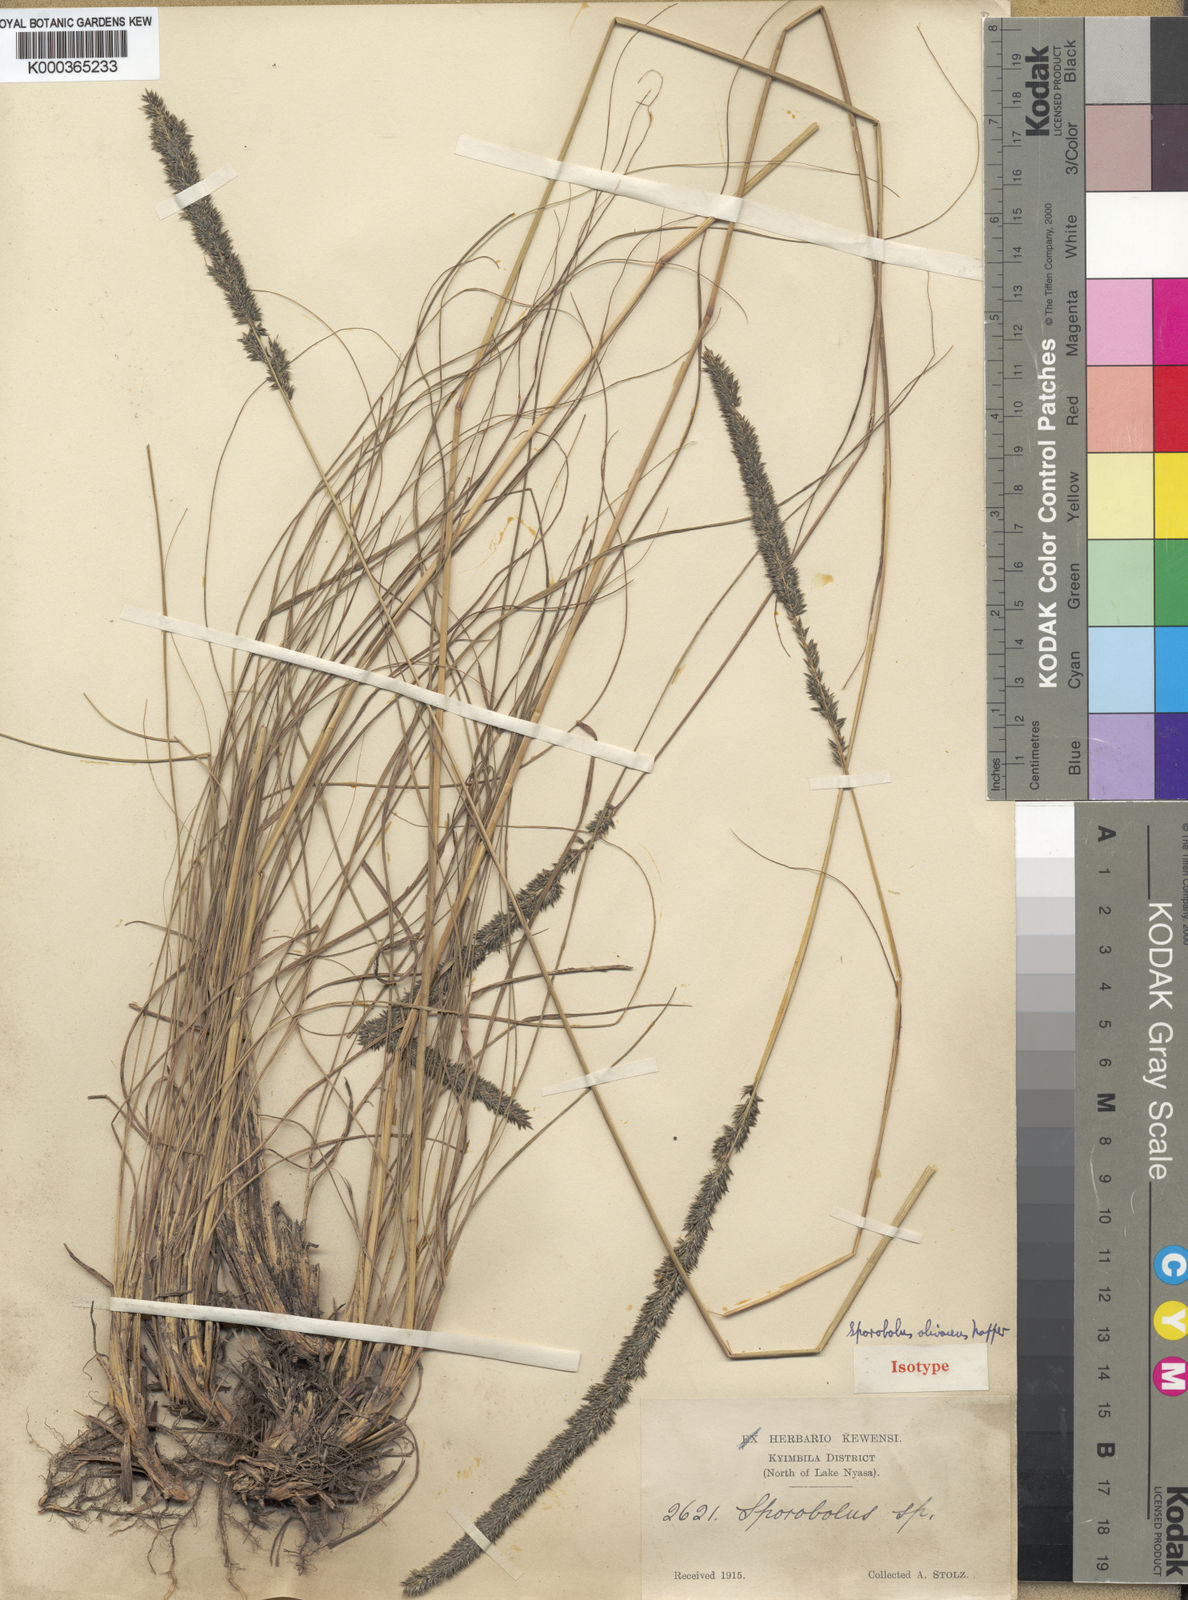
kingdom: Plantae
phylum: Tracheophyta
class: Liliopsida
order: Poales
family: Poaceae
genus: Sporobolus
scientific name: Sporobolus olivaceus
